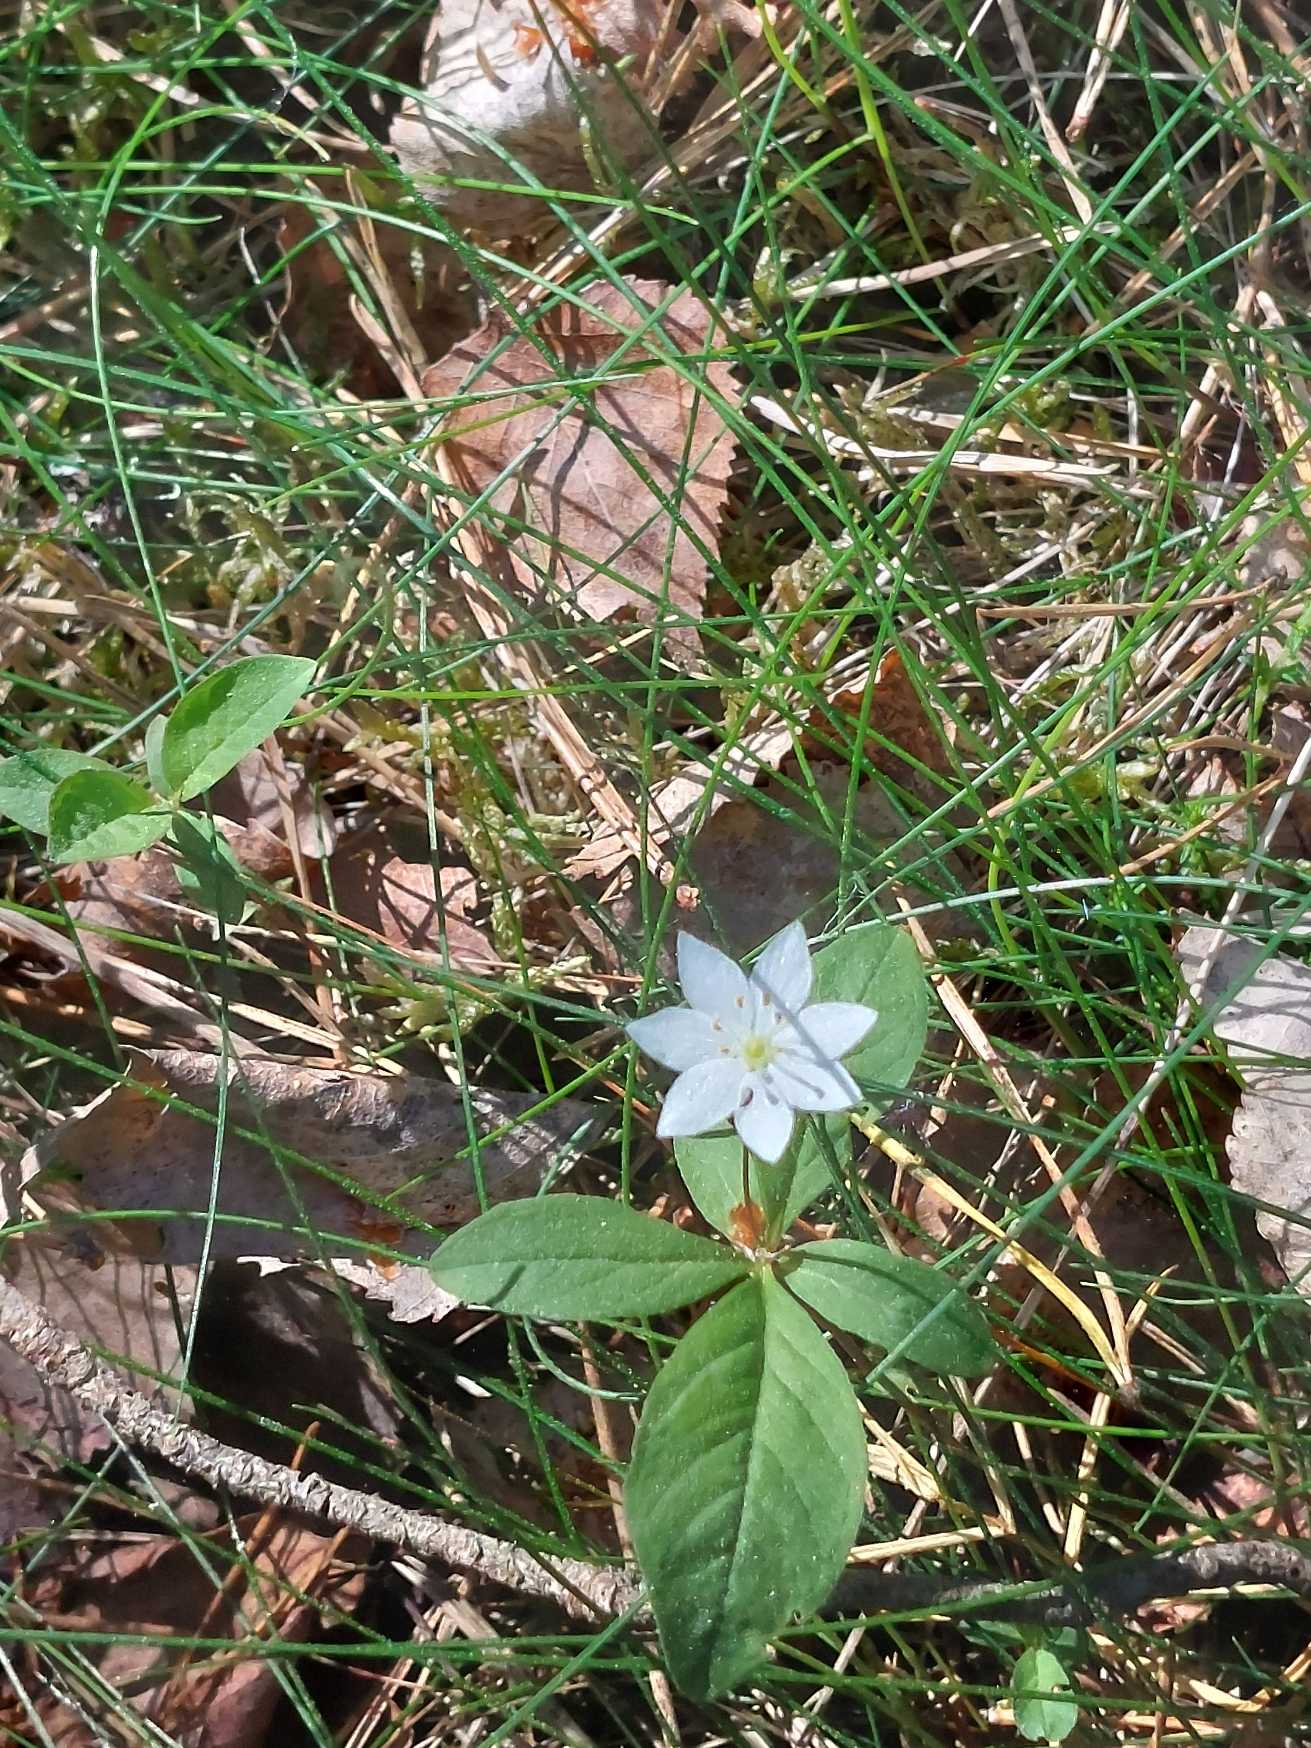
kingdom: Plantae
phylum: Tracheophyta
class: Magnoliopsida
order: Ericales
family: Primulaceae
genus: Lysimachia
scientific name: Lysimachia europaea
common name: Skovstjerne
